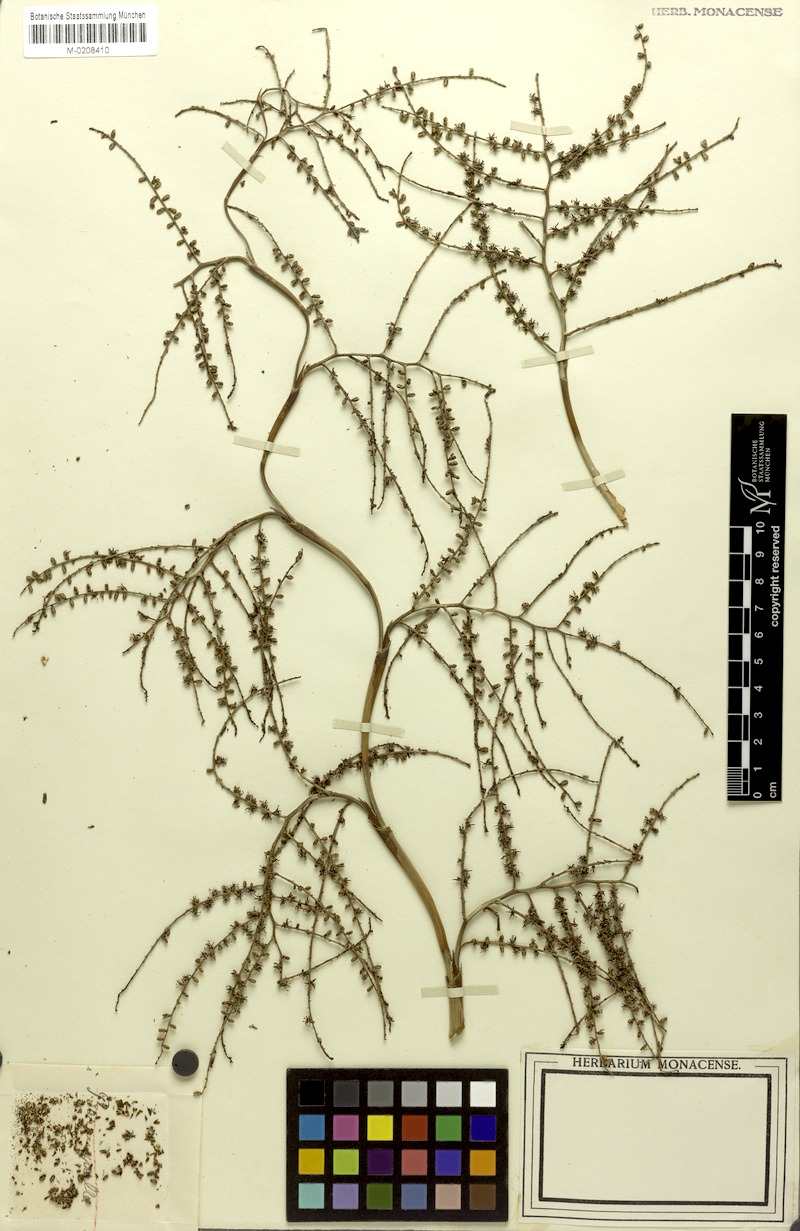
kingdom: Plantae
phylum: Tracheophyta
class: Liliopsida
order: Arecales
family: Arecaceae
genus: Sabal
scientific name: Sabal rosei
